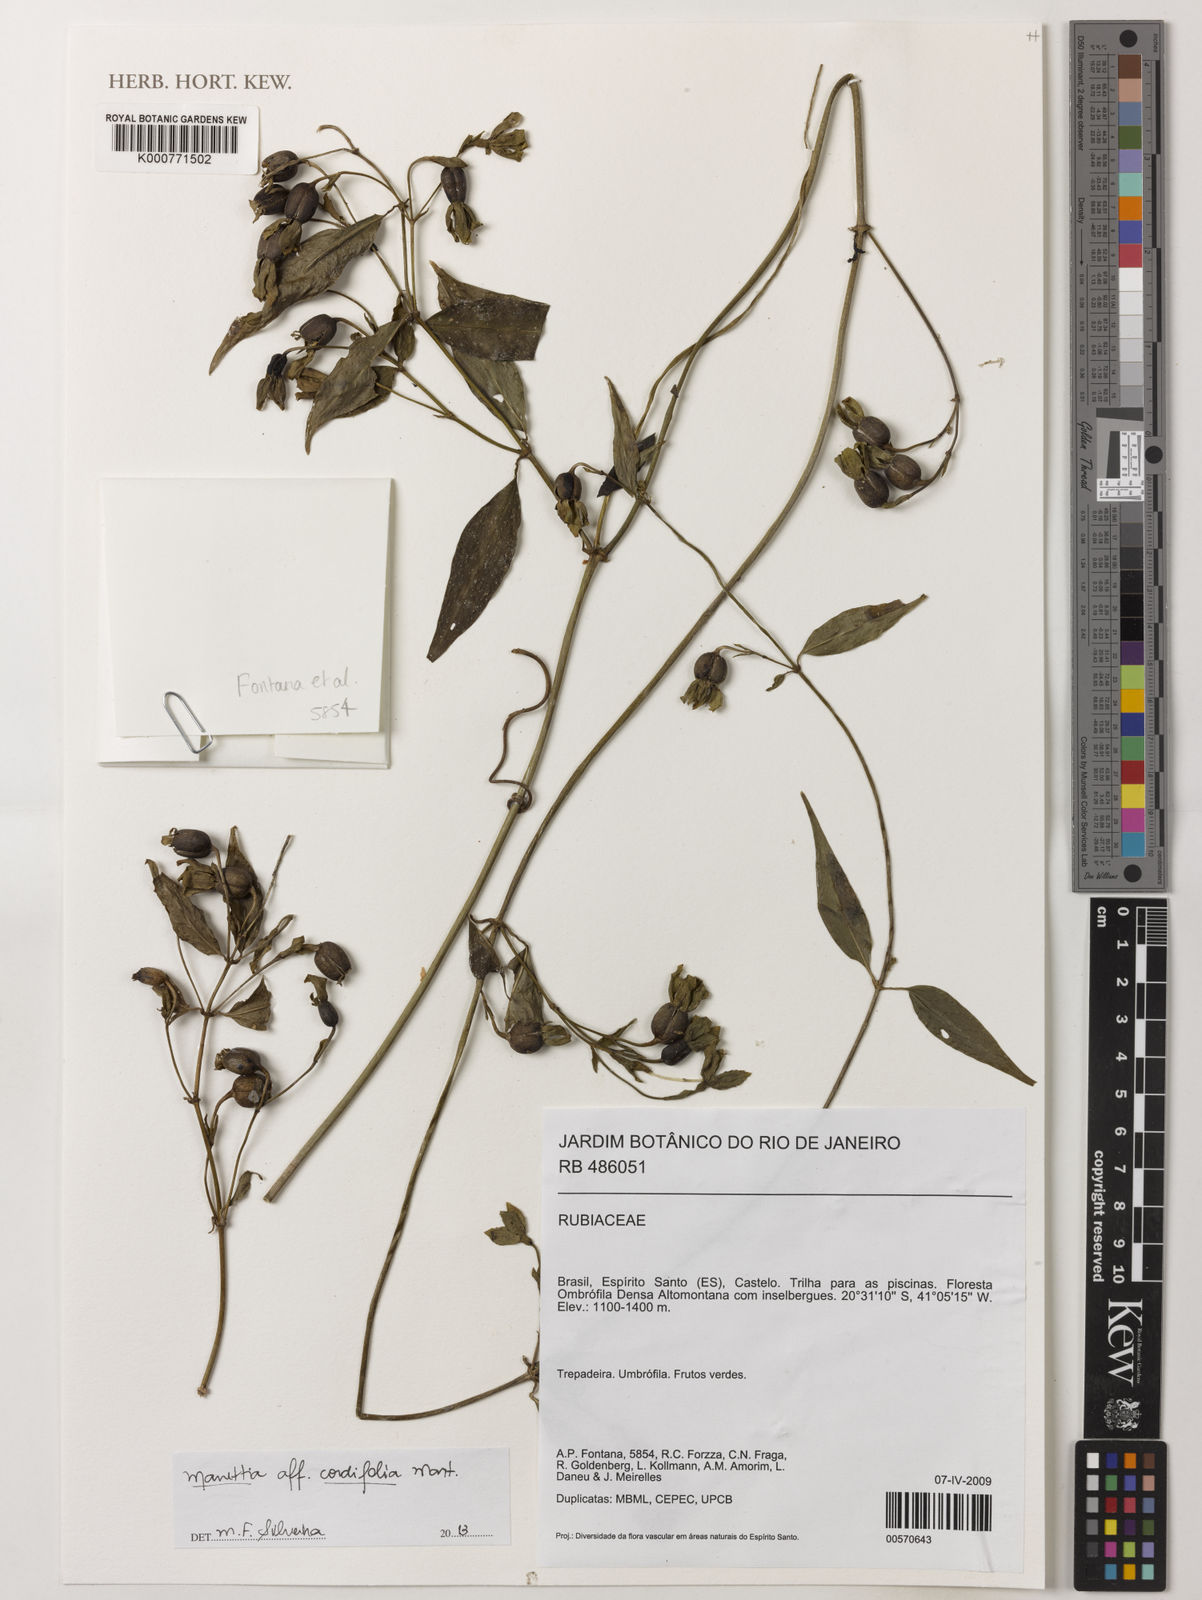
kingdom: Plantae
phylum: Tracheophyta
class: Magnoliopsida
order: Gentianales
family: Rubiaceae
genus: Manettia
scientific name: Manettia cordifolia
